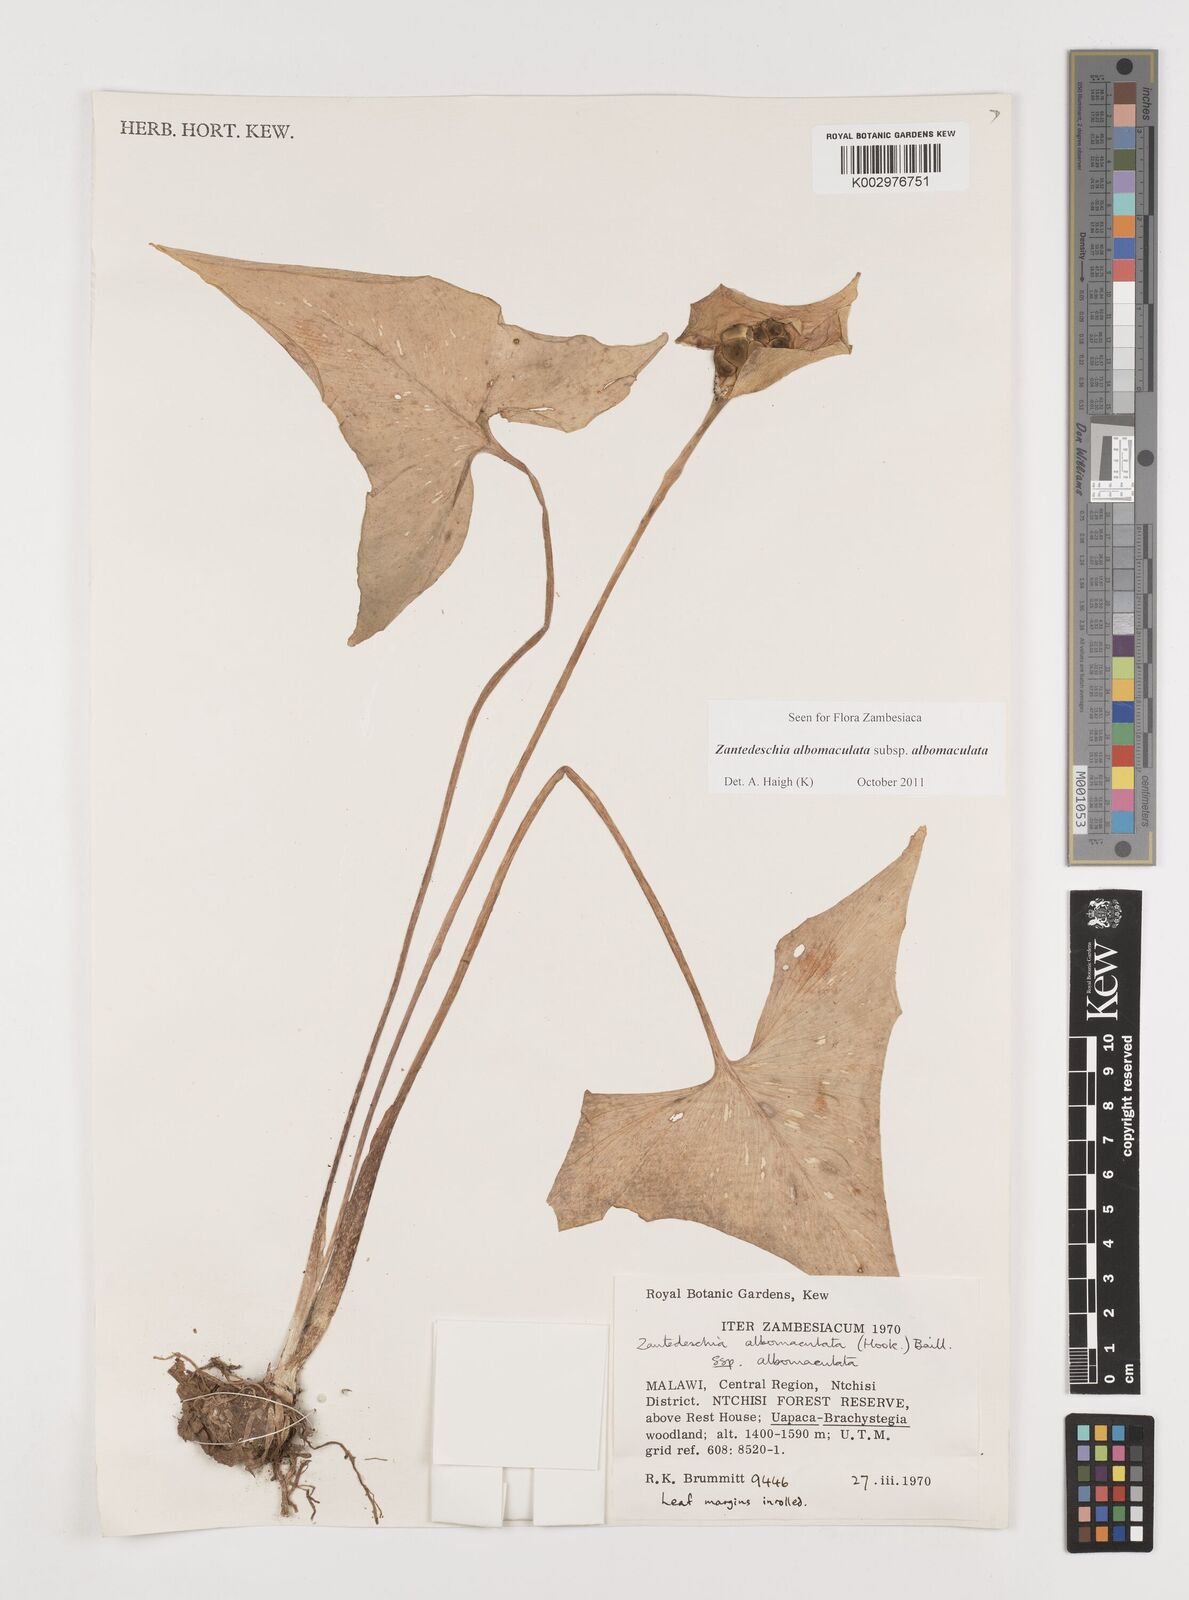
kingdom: Plantae
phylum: Tracheophyta
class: Liliopsida
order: Alismatales
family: Araceae
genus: Zantedeschia
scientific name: Zantedeschia albomaculata
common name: Spotted calla lily
